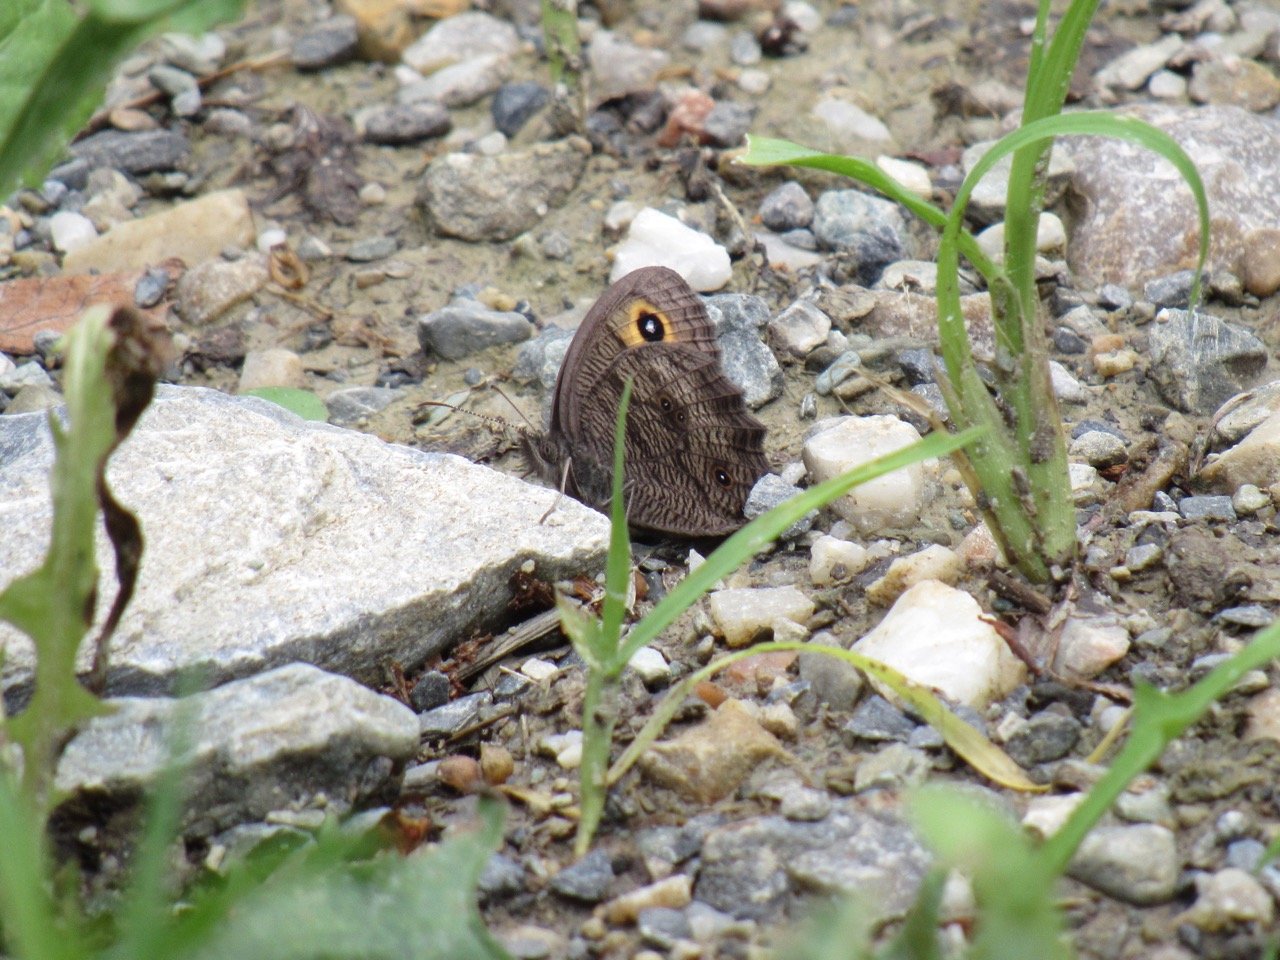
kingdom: Animalia
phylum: Arthropoda
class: Insecta
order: Lepidoptera
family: Nymphalidae
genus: Cercyonis
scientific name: Cercyonis pegala
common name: Common Wood-Nymph
